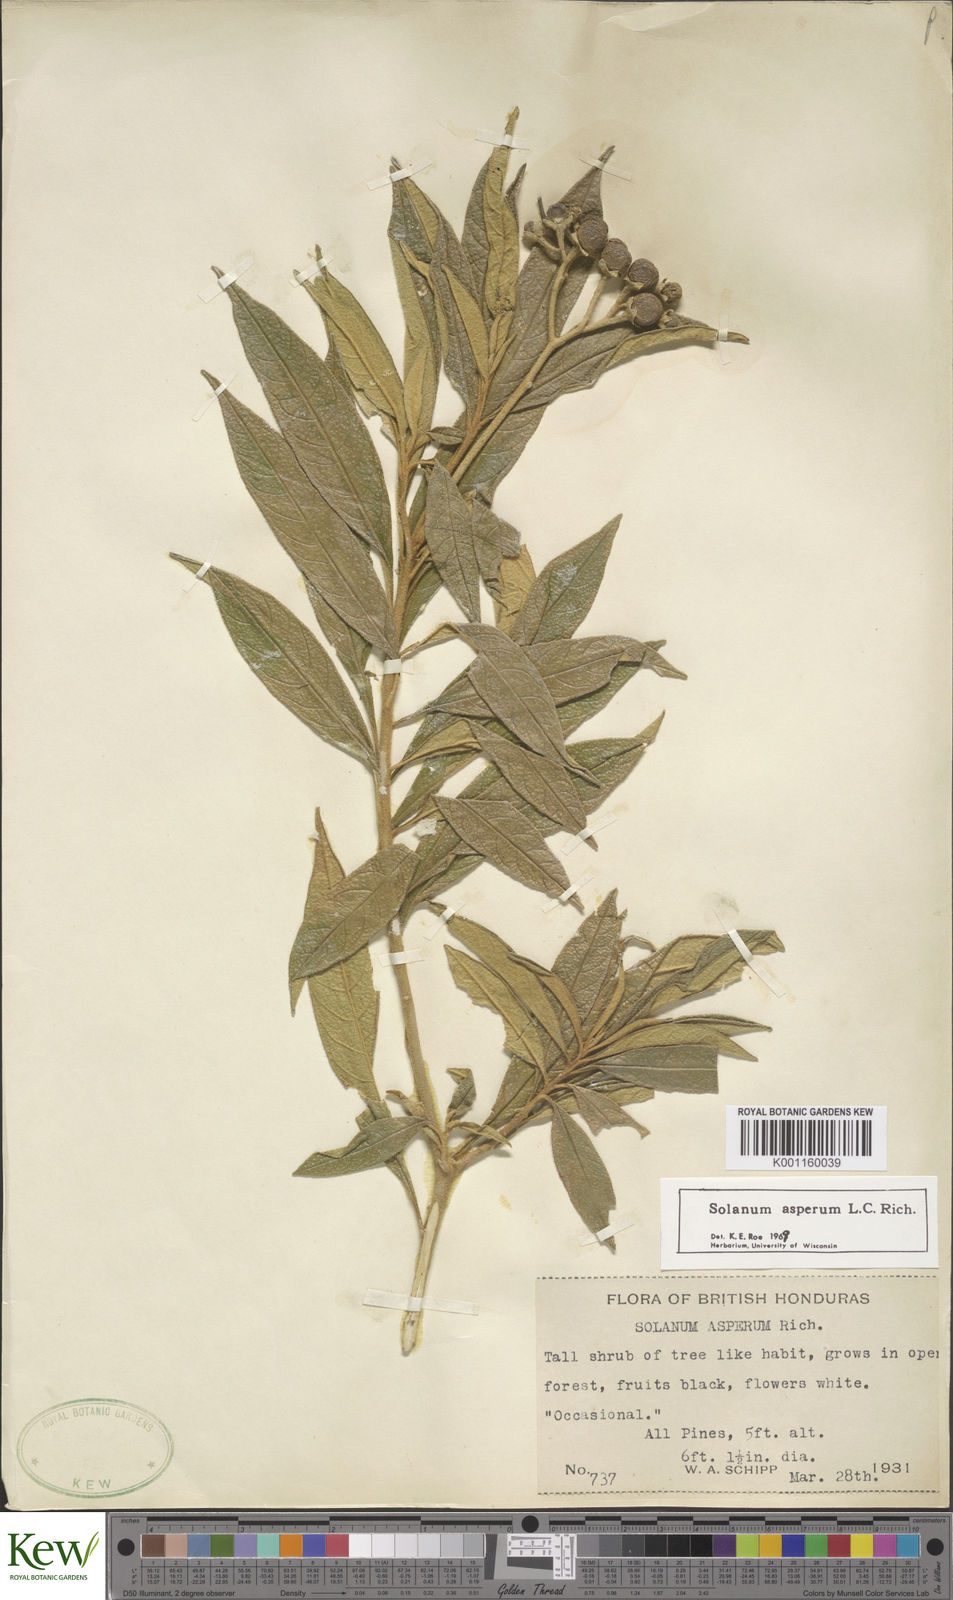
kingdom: Plantae
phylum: Tracheophyta
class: Magnoliopsida
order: Solanales
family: Solanaceae
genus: Solanum
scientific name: Solanum asperum
